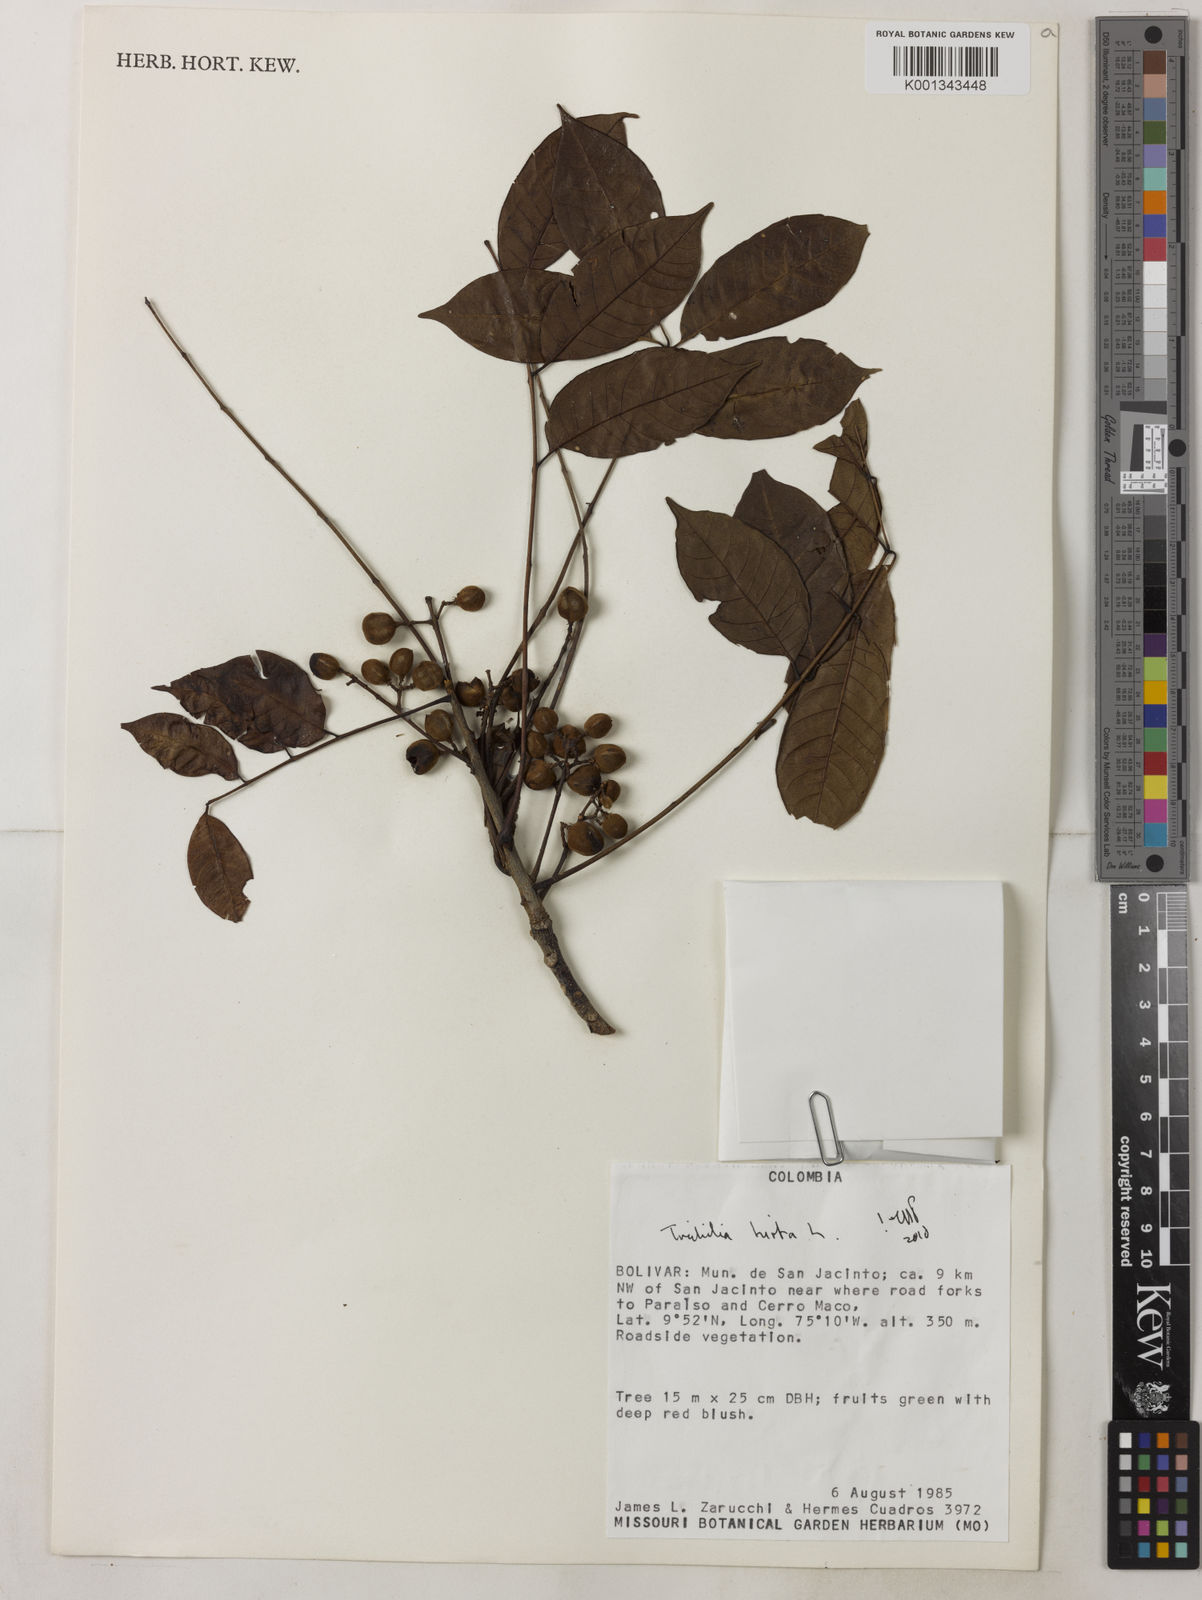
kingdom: Plantae
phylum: Tracheophyta
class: Magnoliopsida
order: Sapindales
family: Meliaceae
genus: Trichilia
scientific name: Trichilia hirta
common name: Red-cedar
